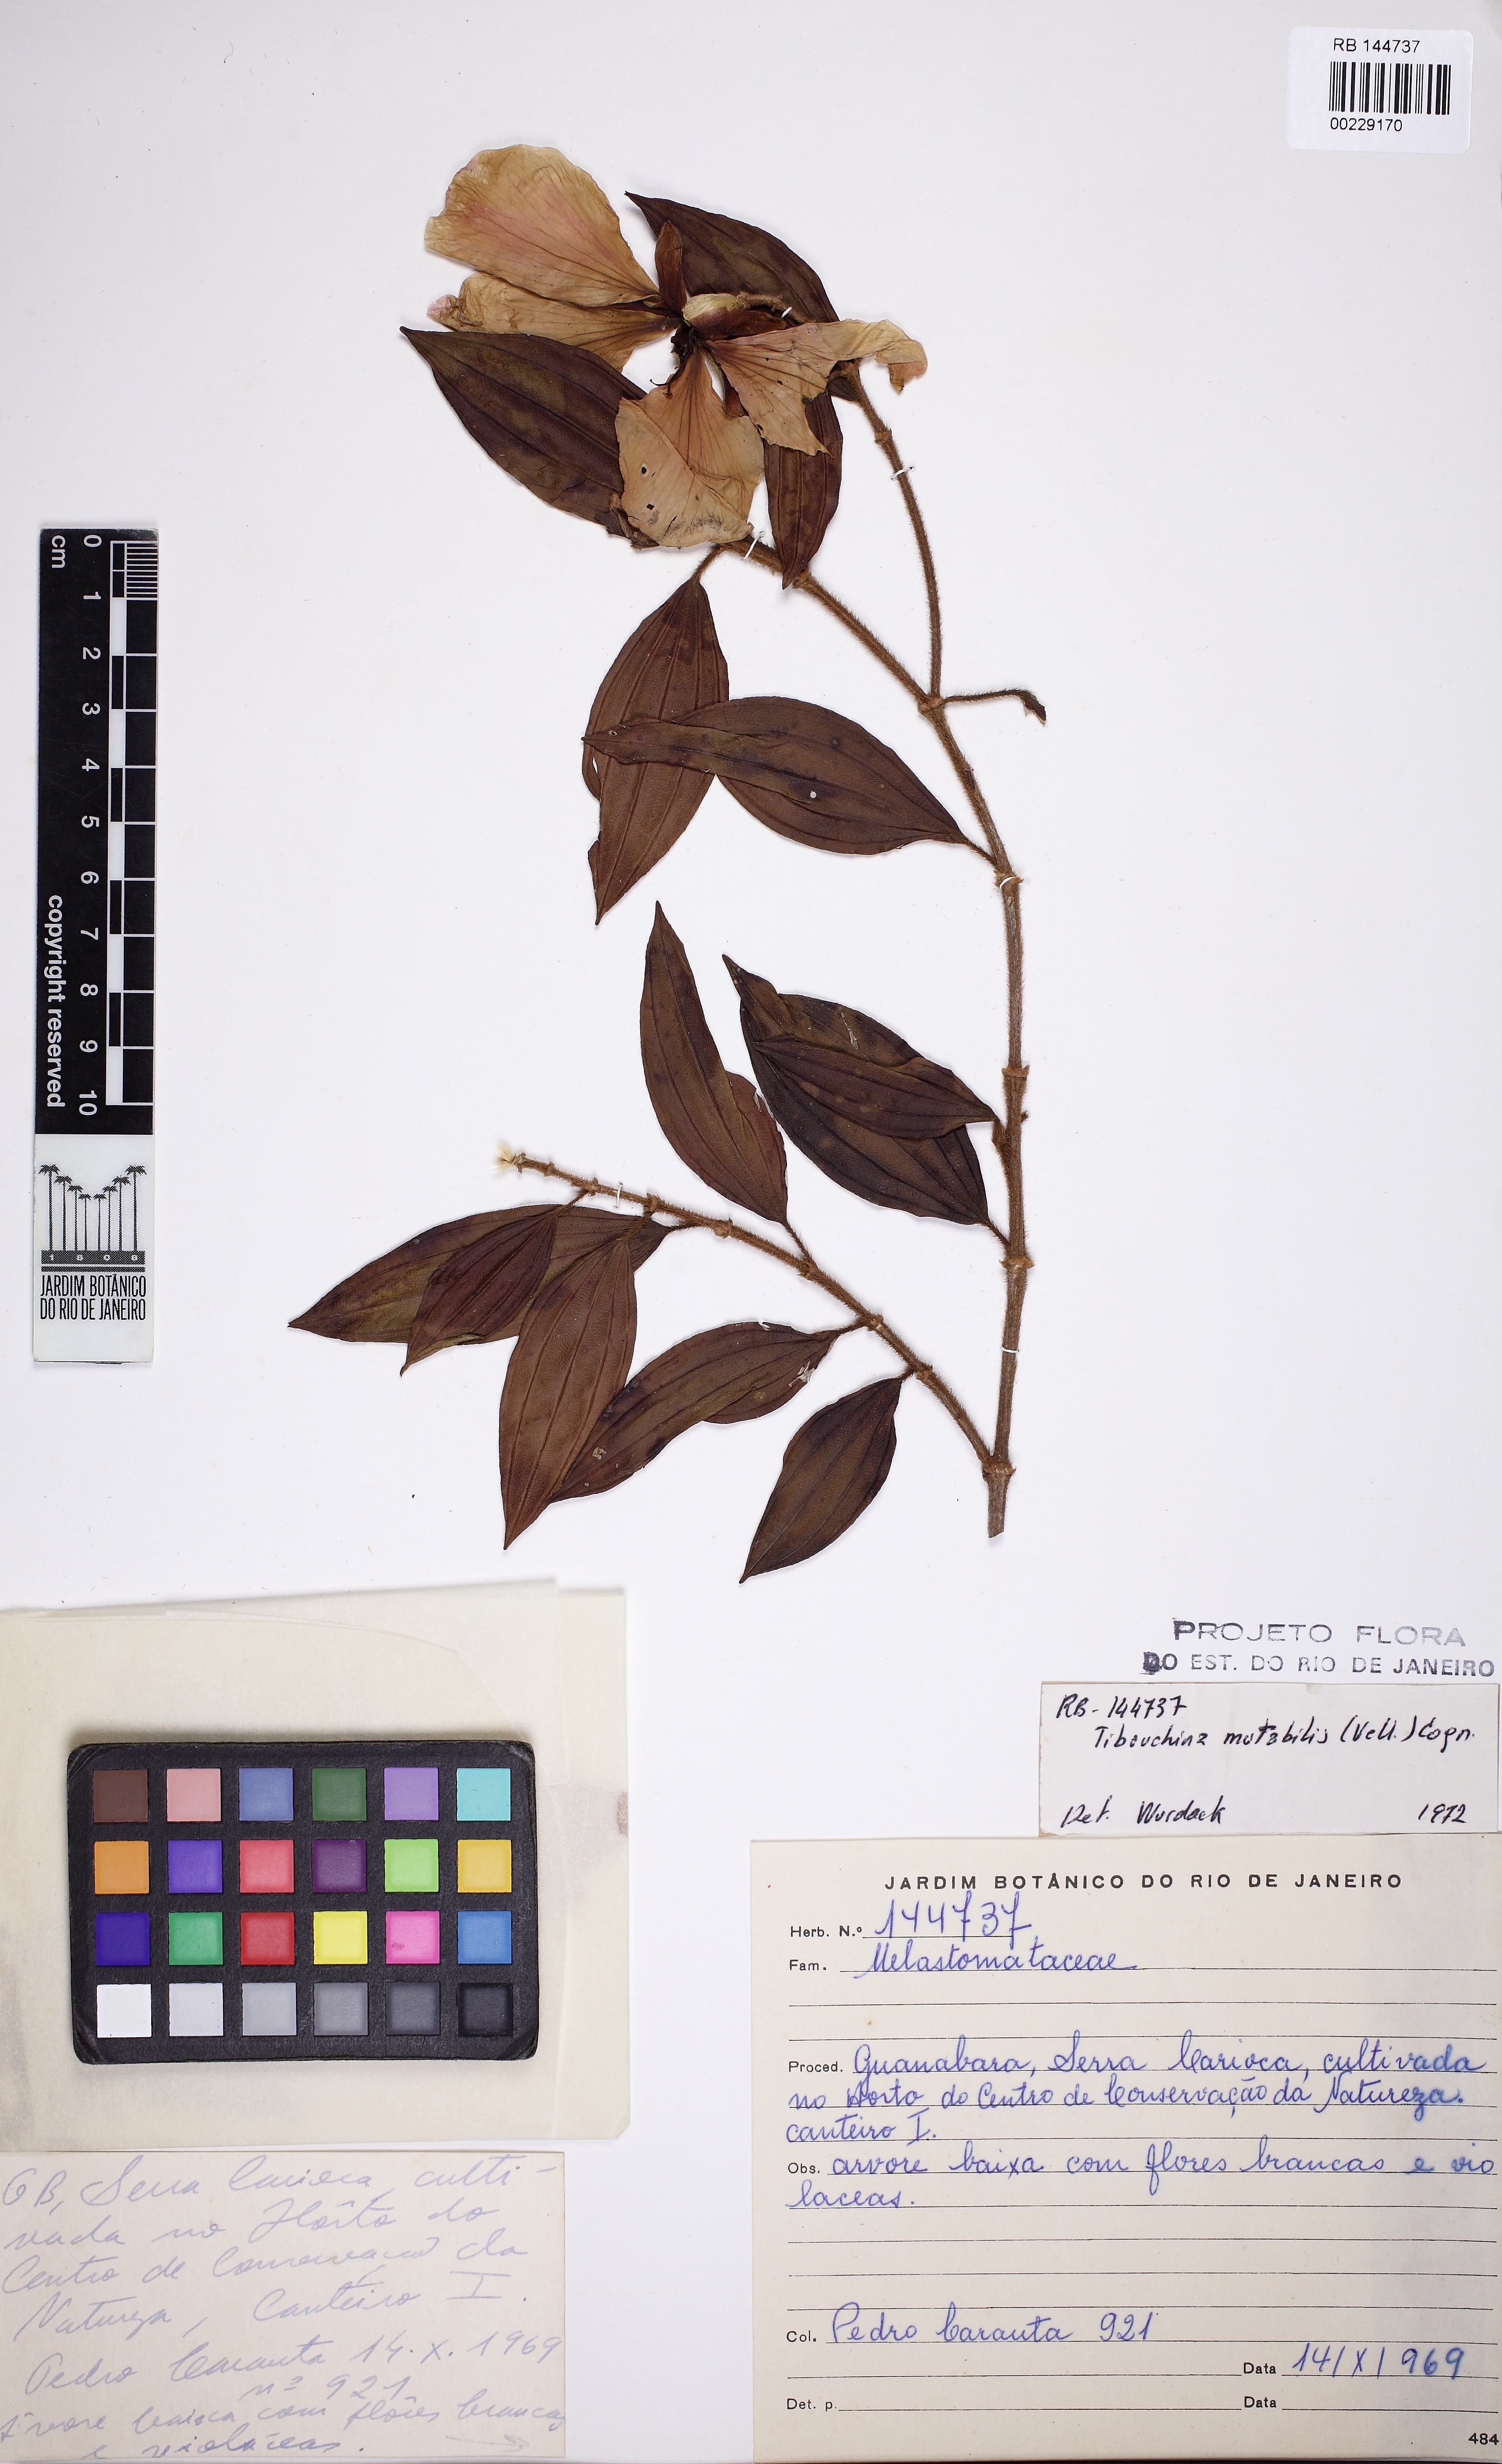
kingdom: Plantae
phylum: Tracheophyta
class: Magnoliopsida
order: Myrtales
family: Melastomataceae
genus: Pleroma
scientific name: Pleroma mosenii
